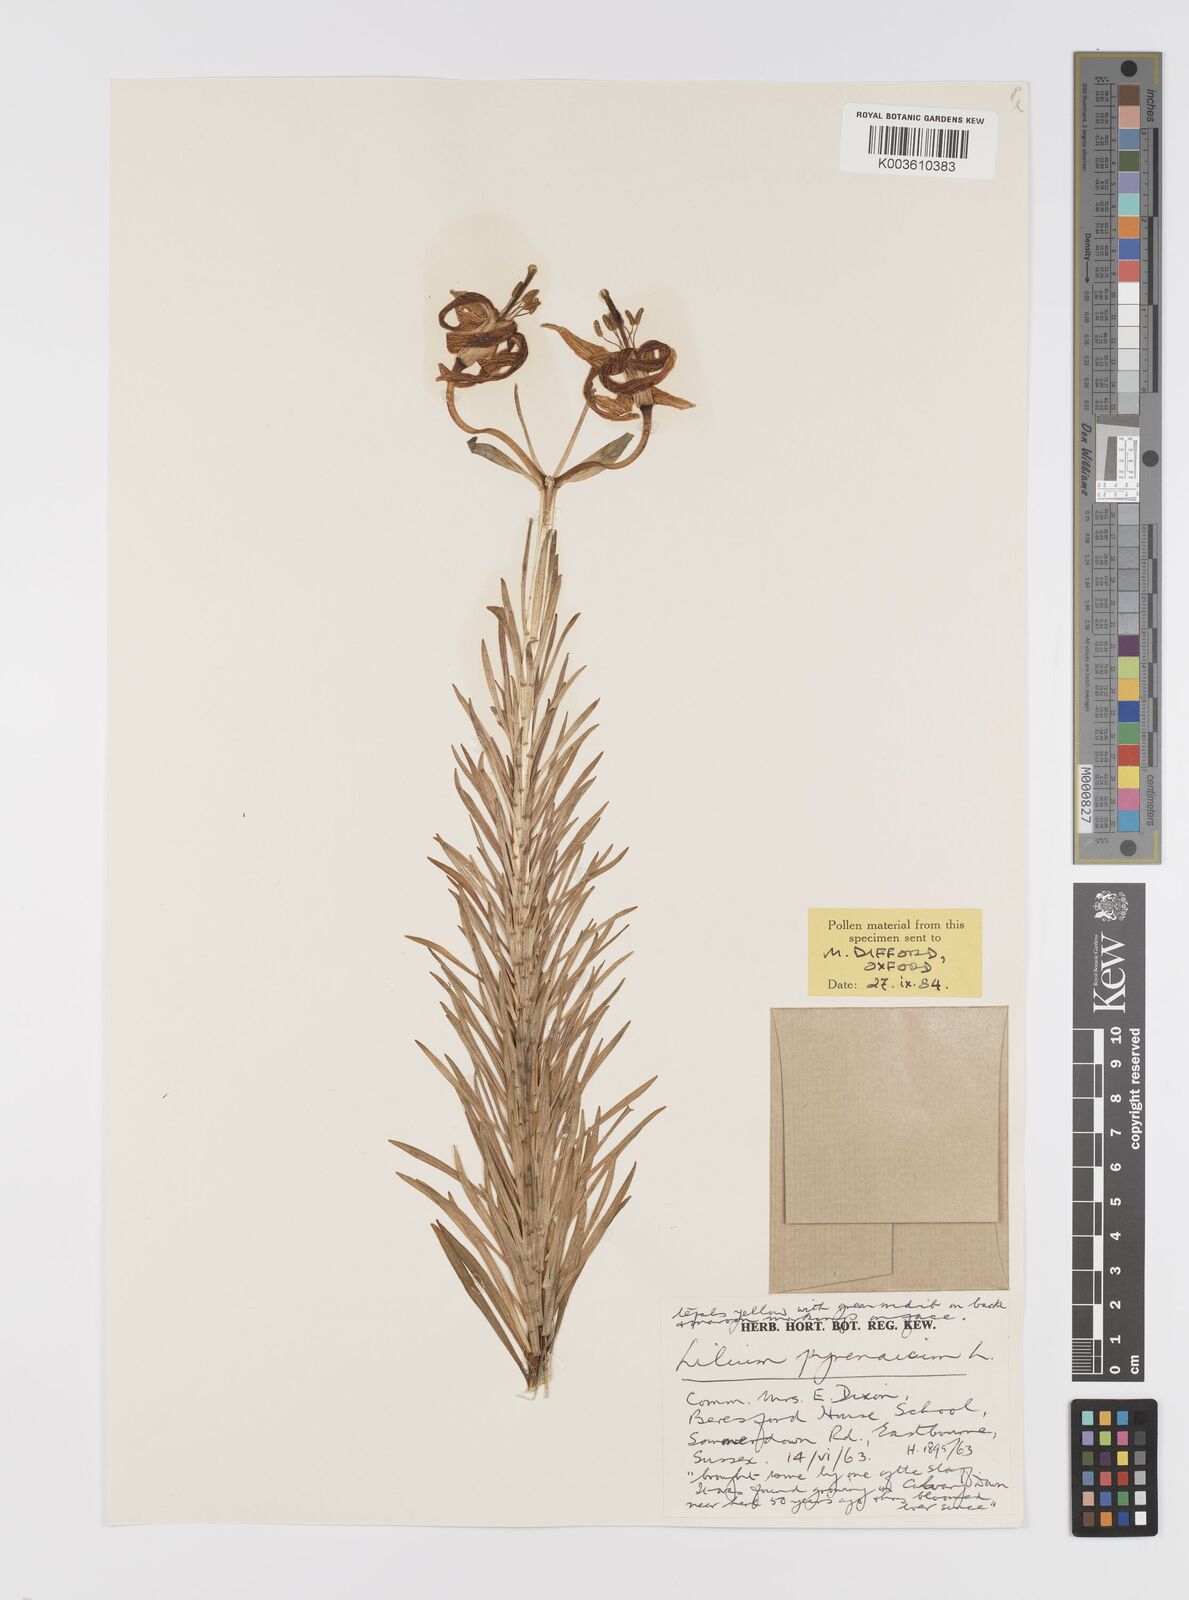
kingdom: Plantae
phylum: Tracheophyta
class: Liliopsida
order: Liliales
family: Liliaceae
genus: Lilium
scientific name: Lilium pyrenaicum
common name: Pyrenean lily
